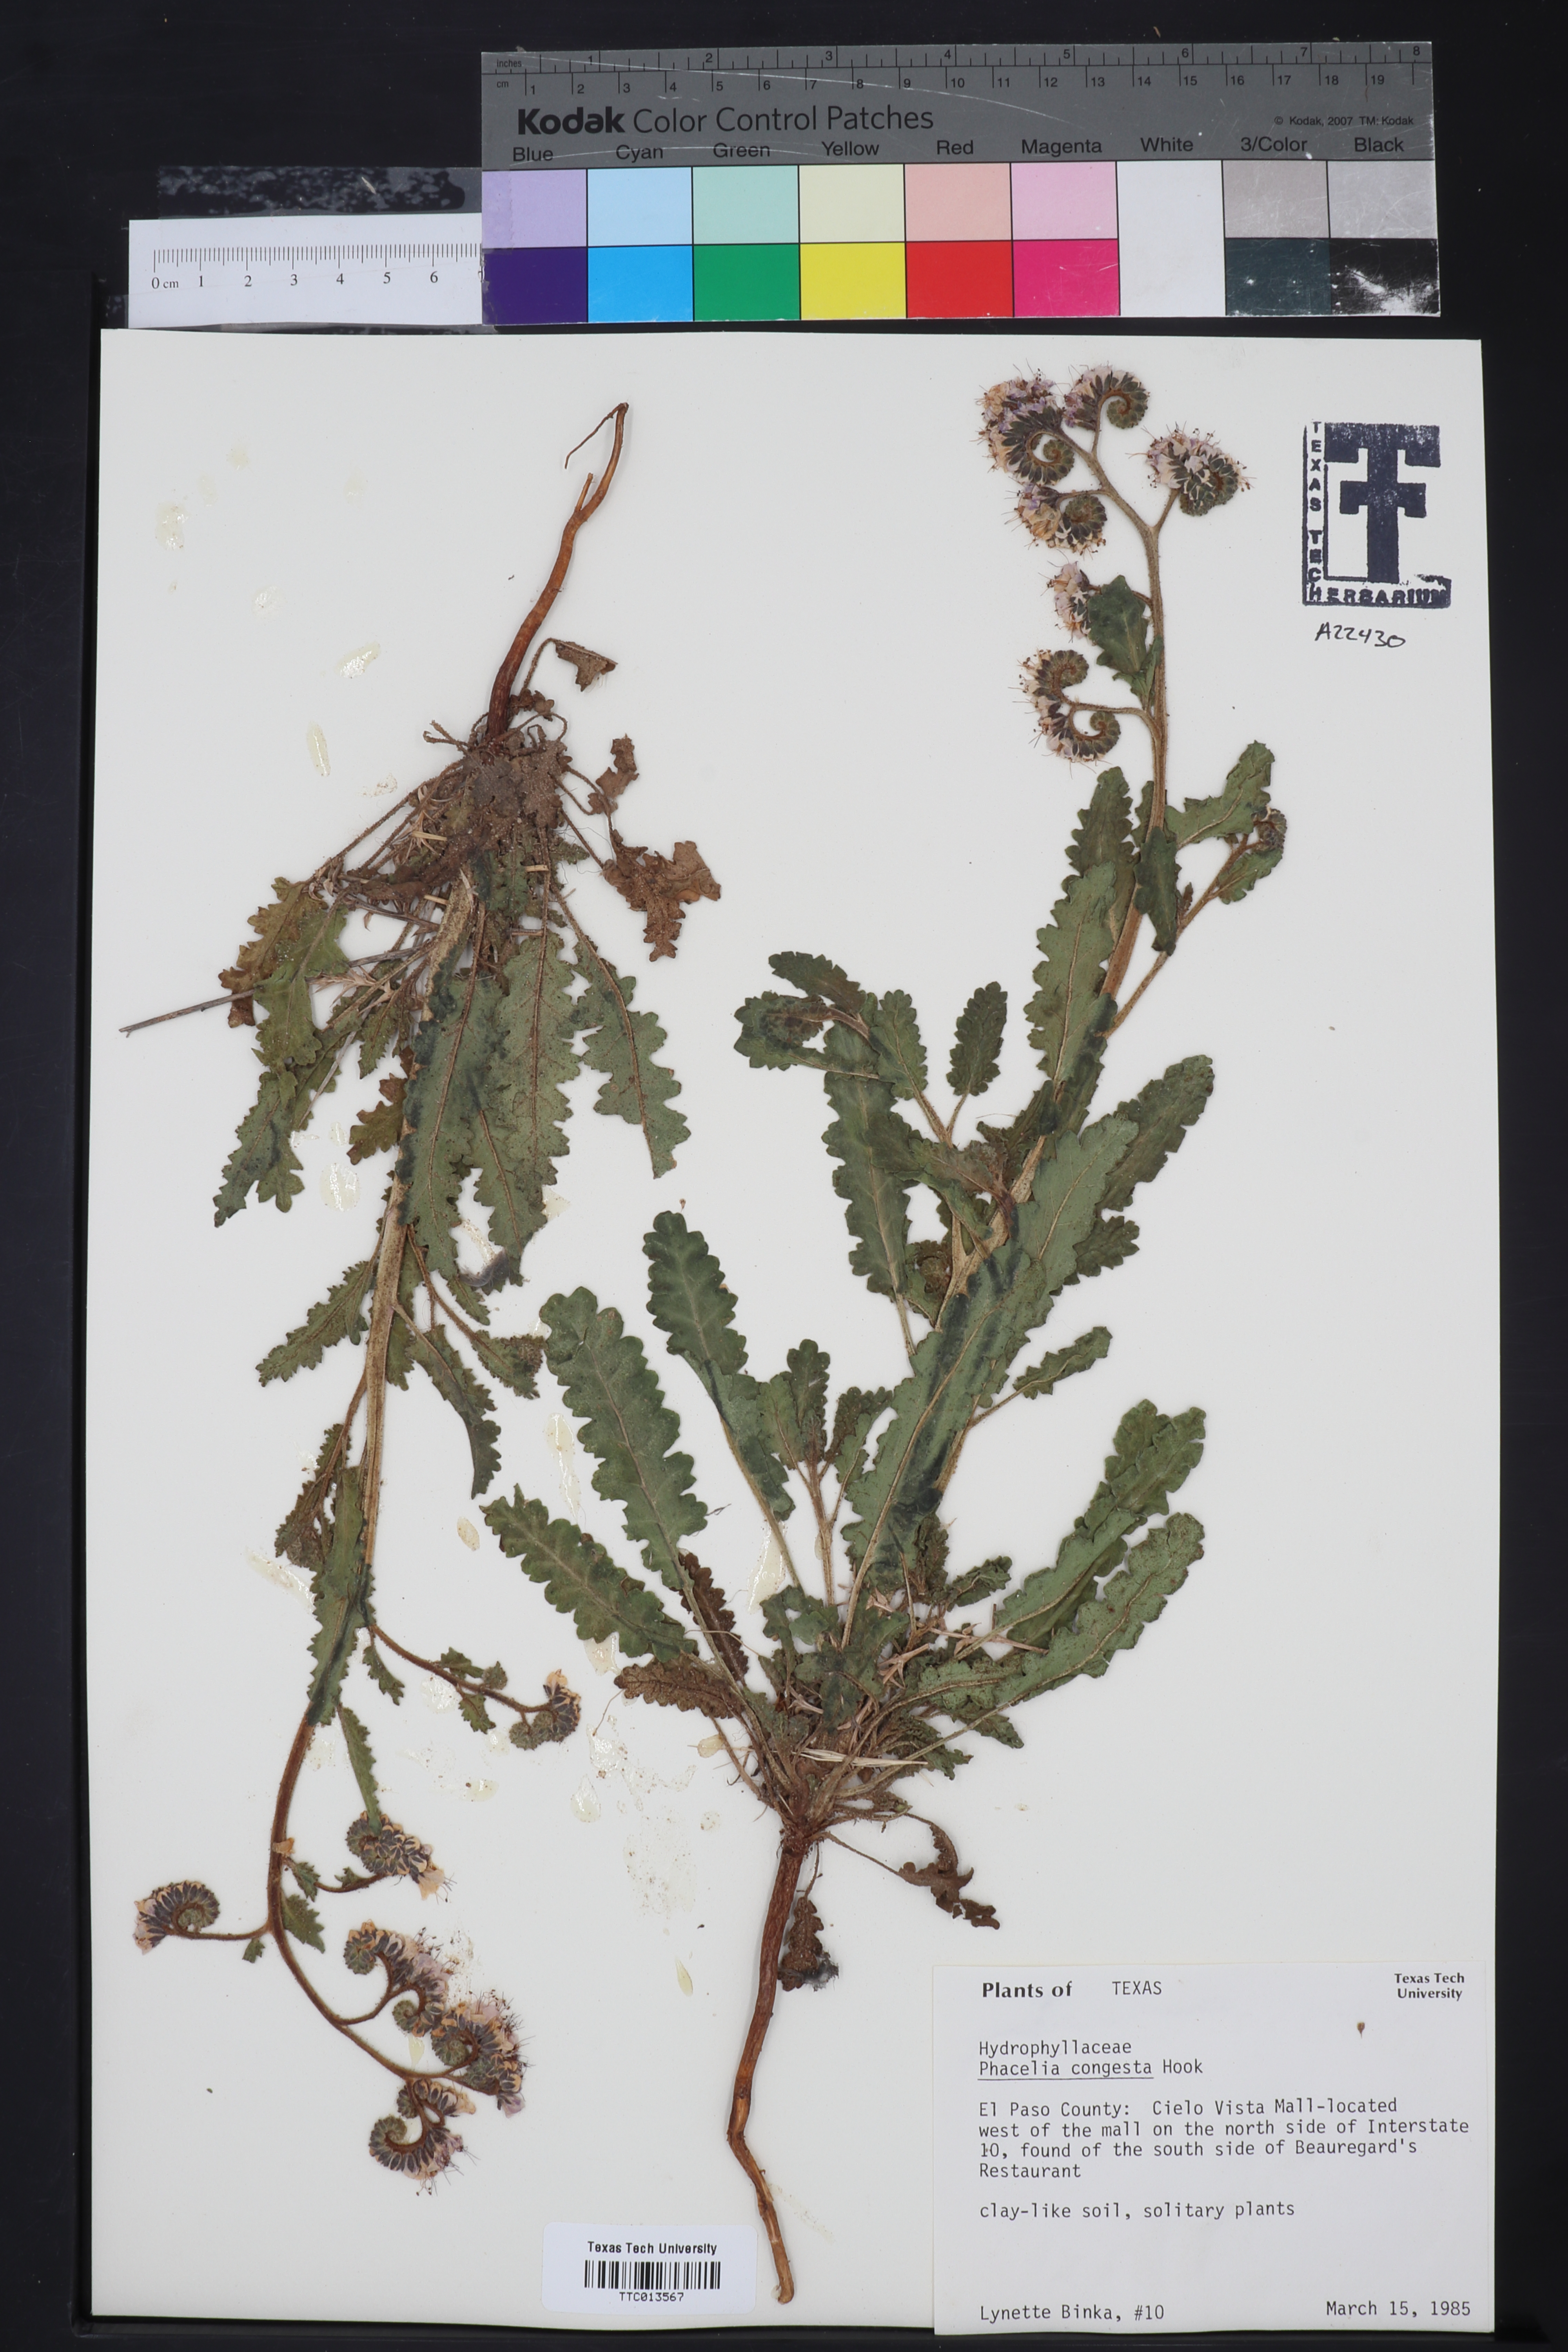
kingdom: Plantae
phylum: Tracheophyta
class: Magnoliopsida
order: Boraginales
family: Hydrophyllaceae
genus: Phacelia
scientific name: Phacelia congesta
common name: Blue curls
